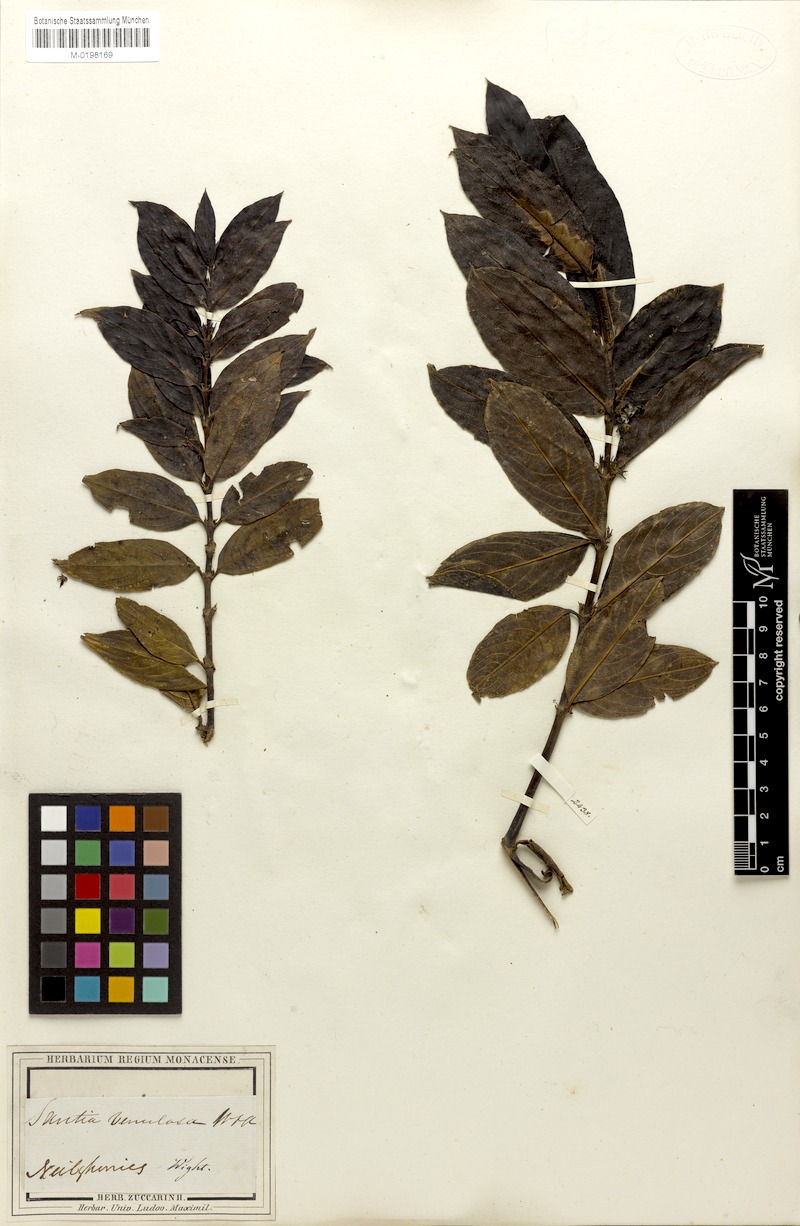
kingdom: Plantae
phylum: Tracheophyta
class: Magnoliopsida
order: Gentianales
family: Rubiaceae
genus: Lasianthus
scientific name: Lasianthus venulosus
